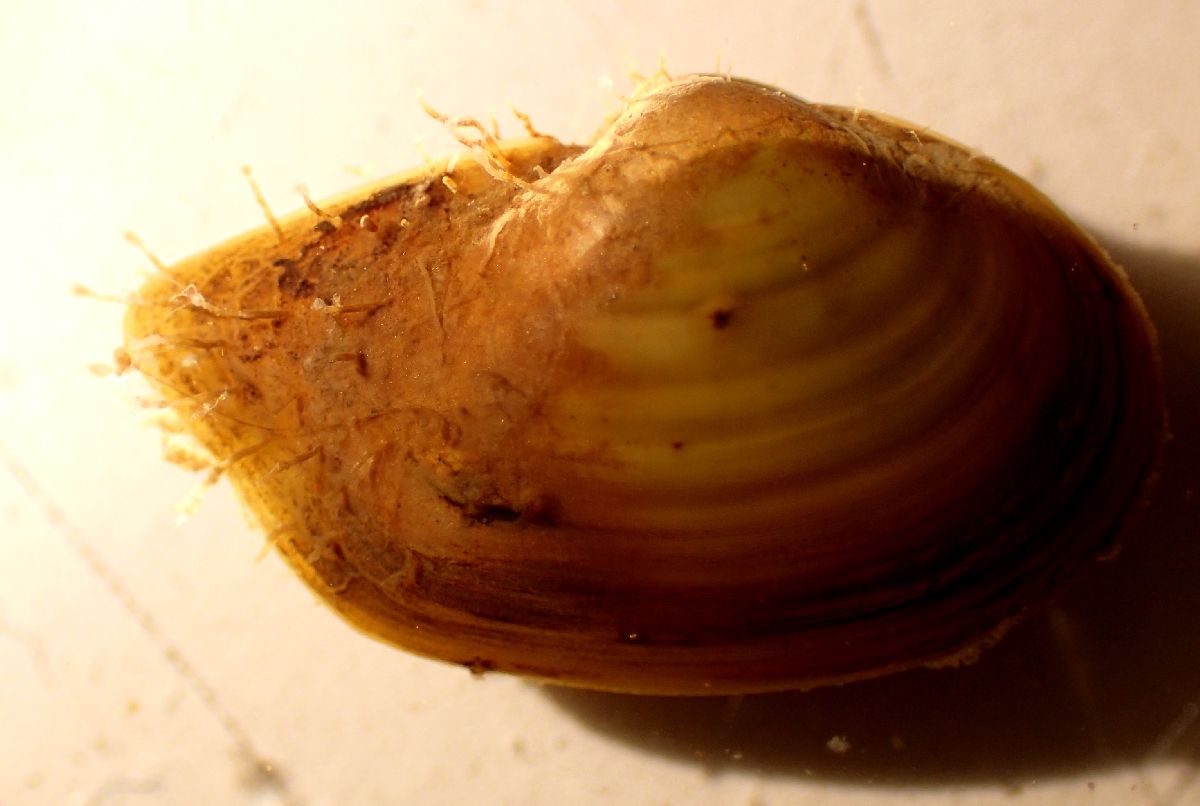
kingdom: Animalia
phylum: Mollusca
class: Bivalvia
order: Nuculanida
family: Yoldiidae
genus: Portlandia
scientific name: Portlandia arctica
